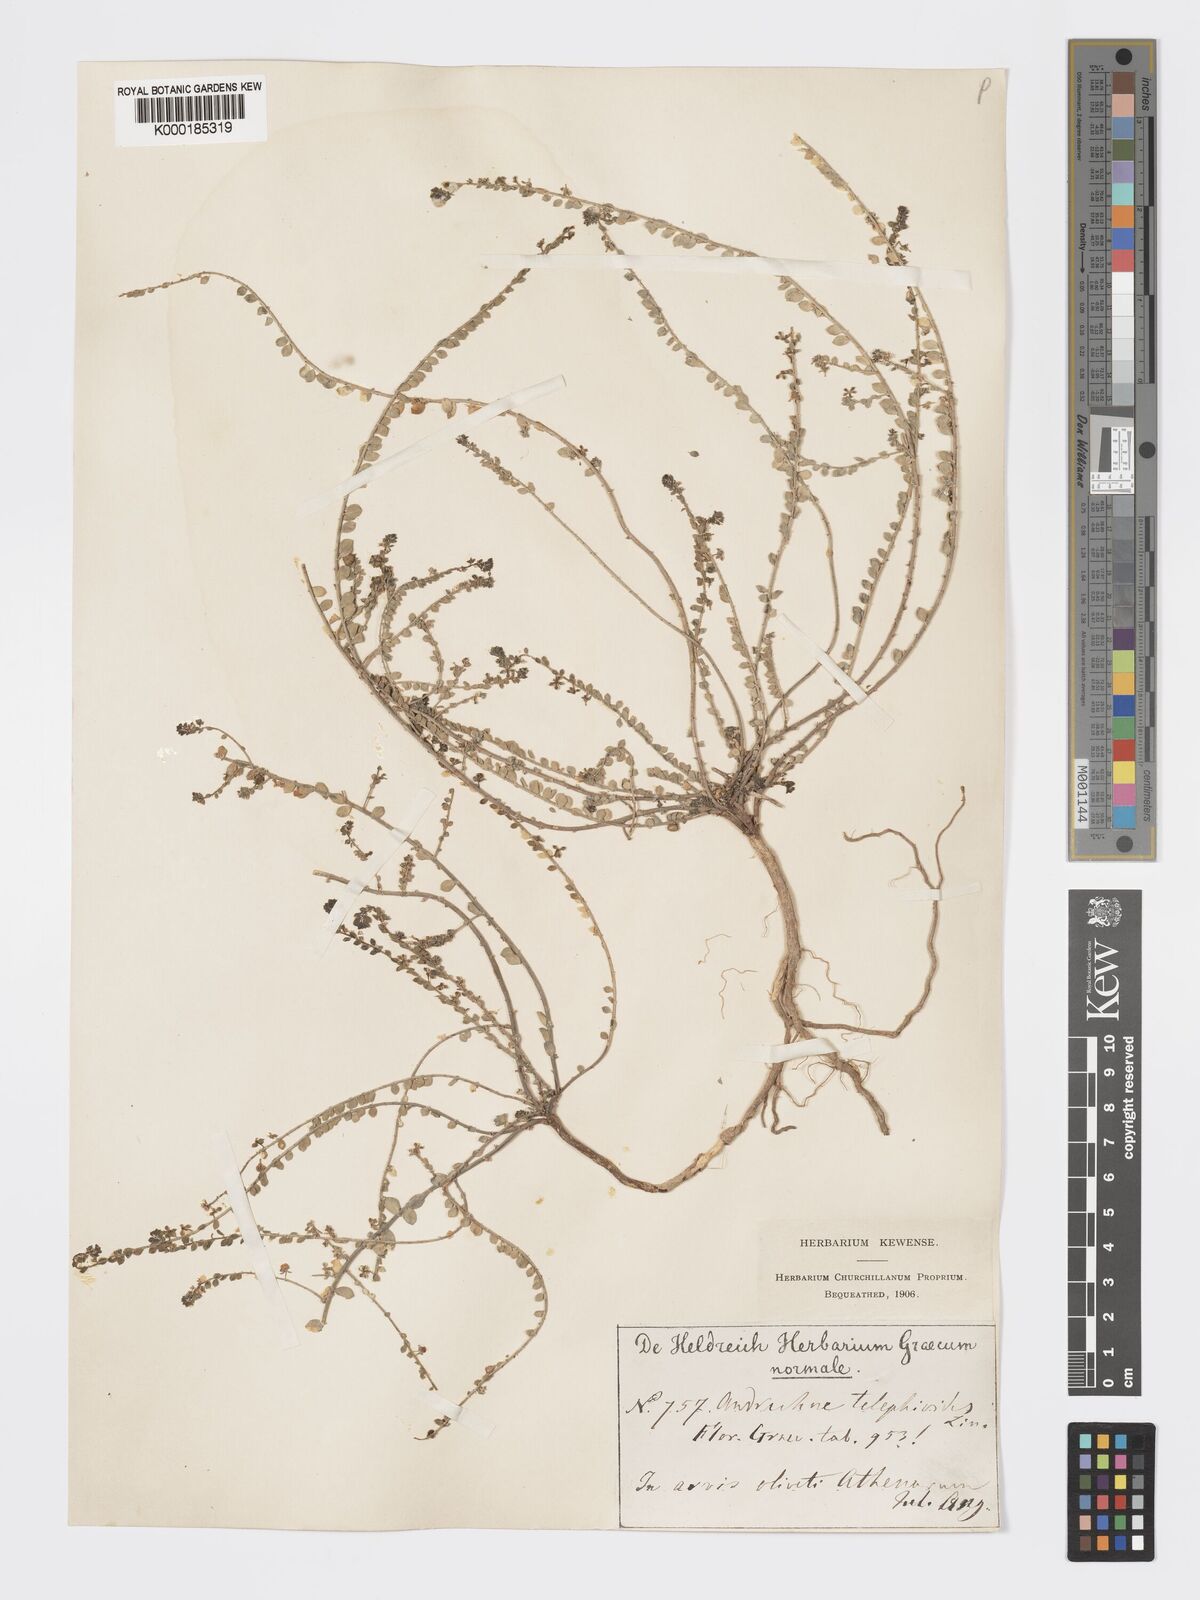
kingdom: Plantae
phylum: Tracheophyta
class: Magnoliopsida
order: Malpighiales
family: Phyllanthaceae
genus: Andrachne
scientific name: Andrachne telephioides
